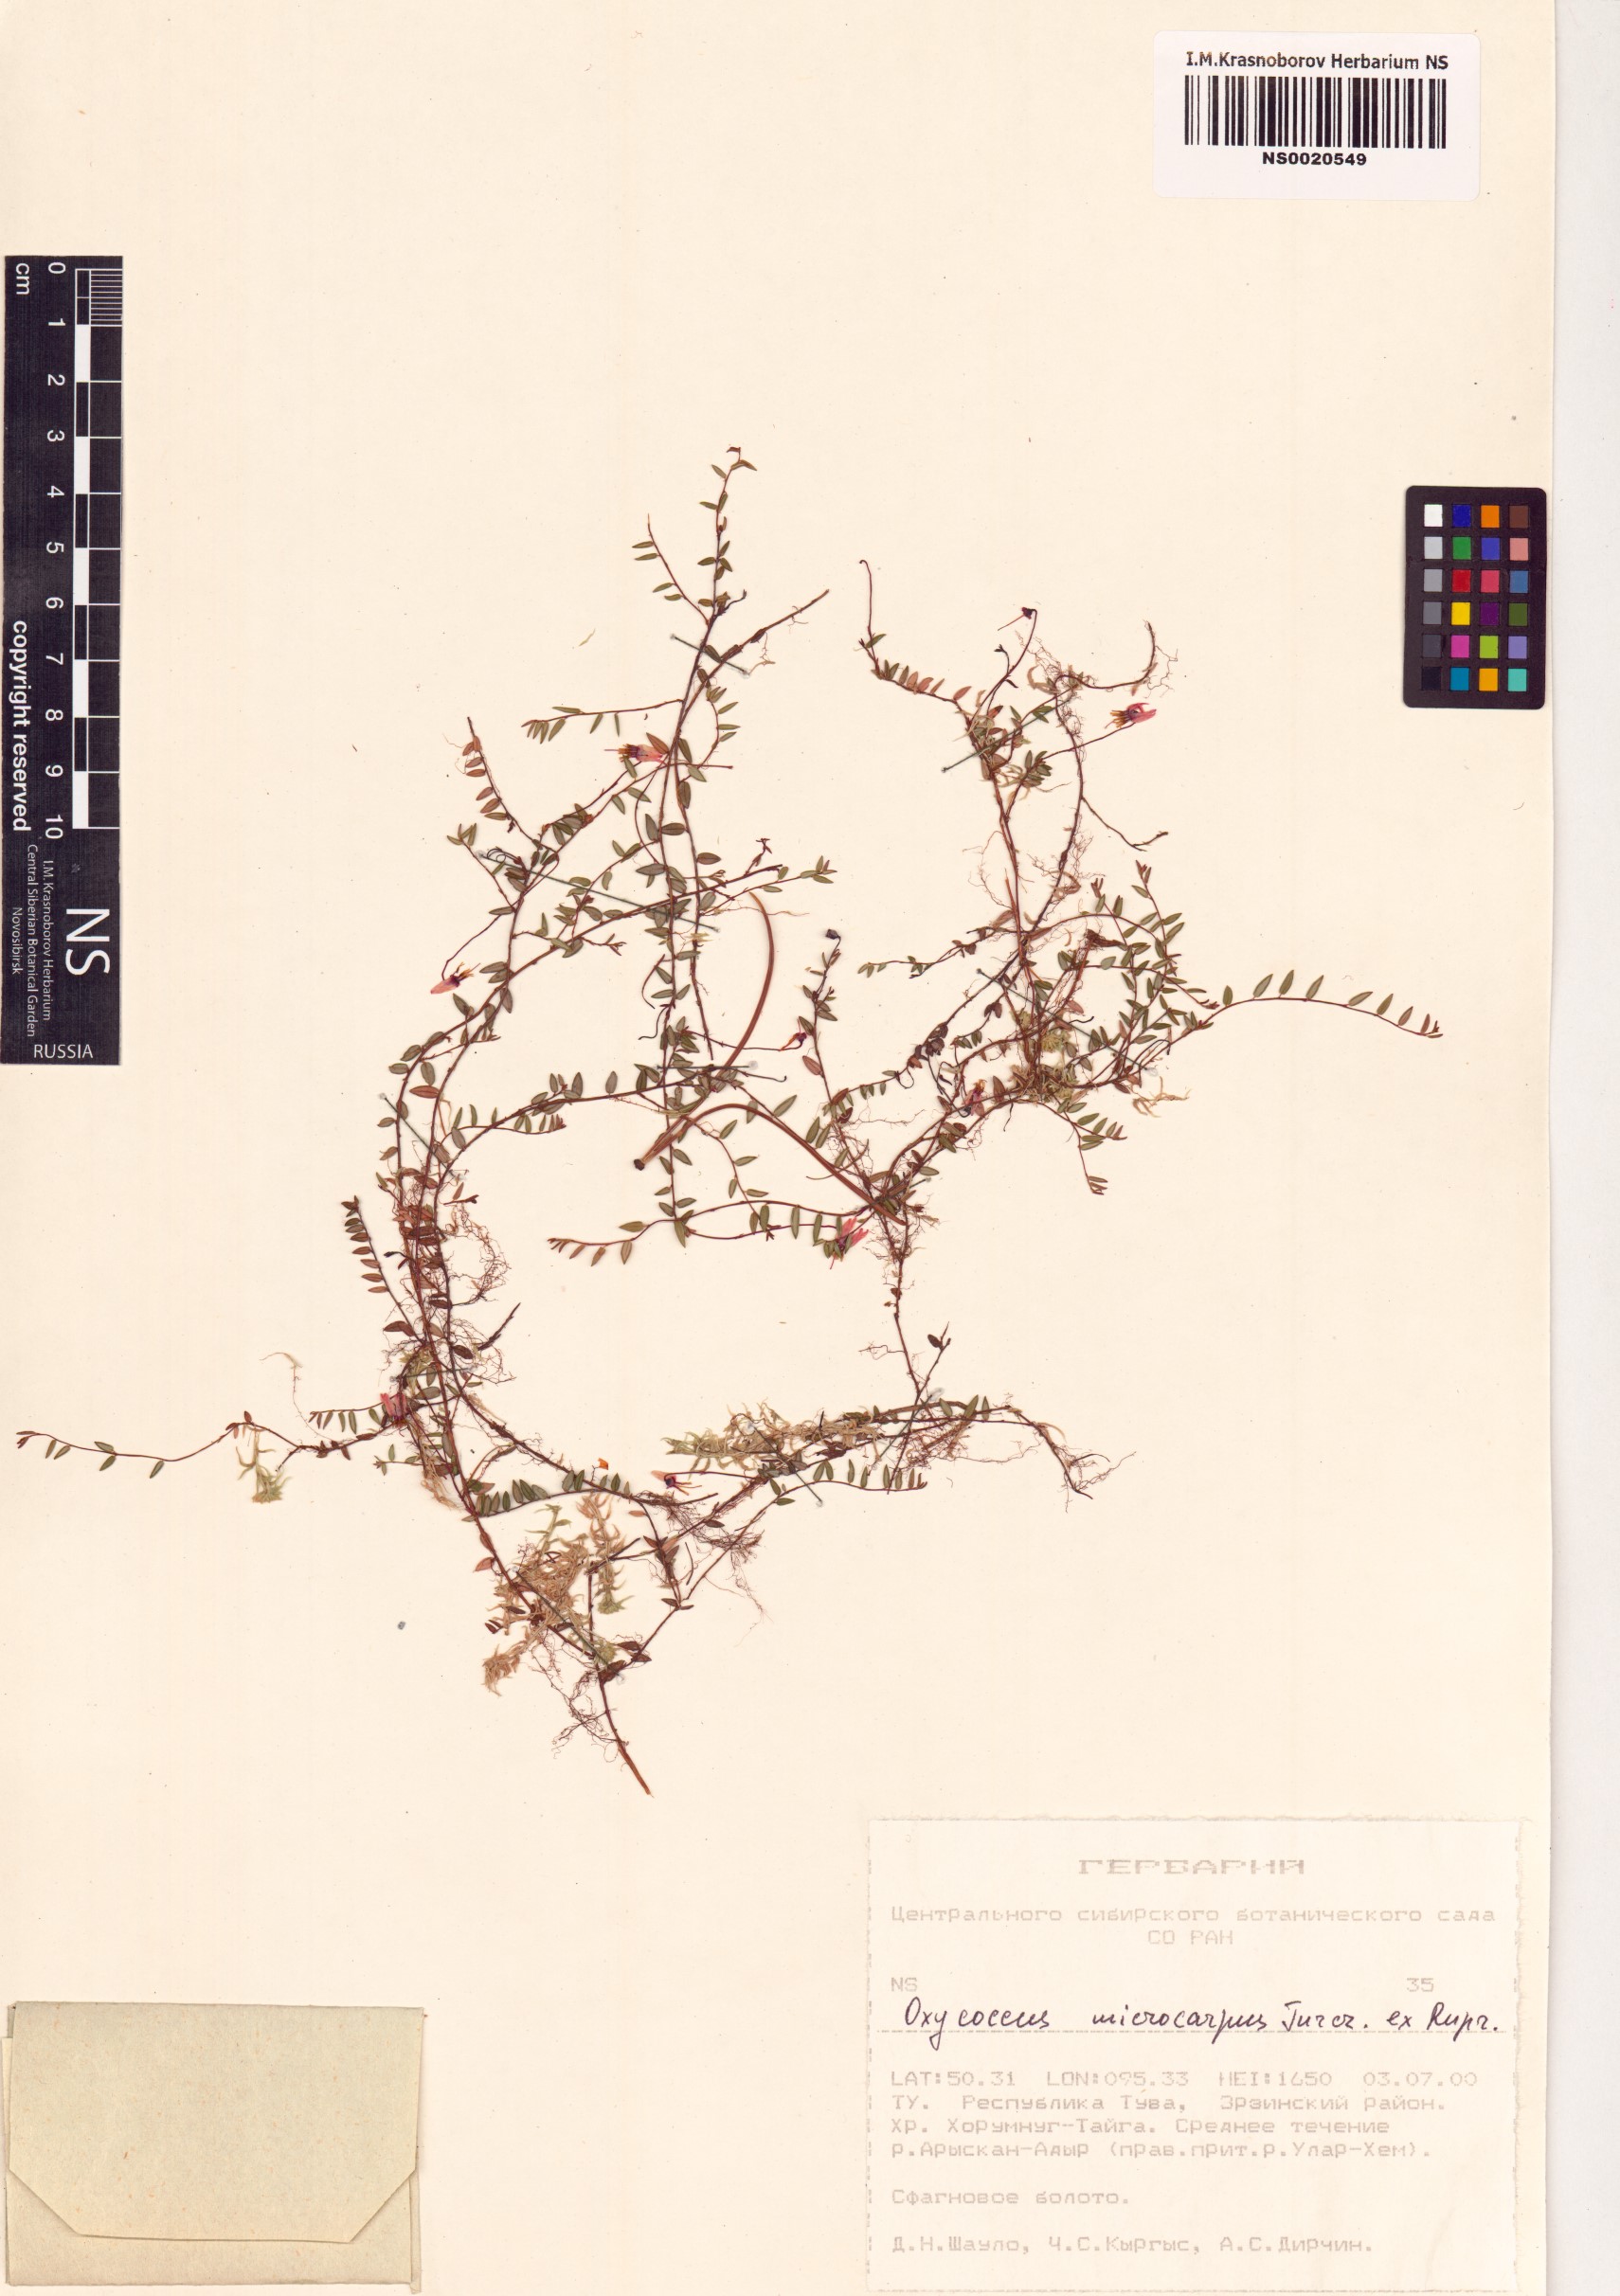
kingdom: Plantae
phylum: Tracheophyta
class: Magnoliopsida
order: Ericales
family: Ericaceae
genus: Vaccinium
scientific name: Vaccinium microcarpum
